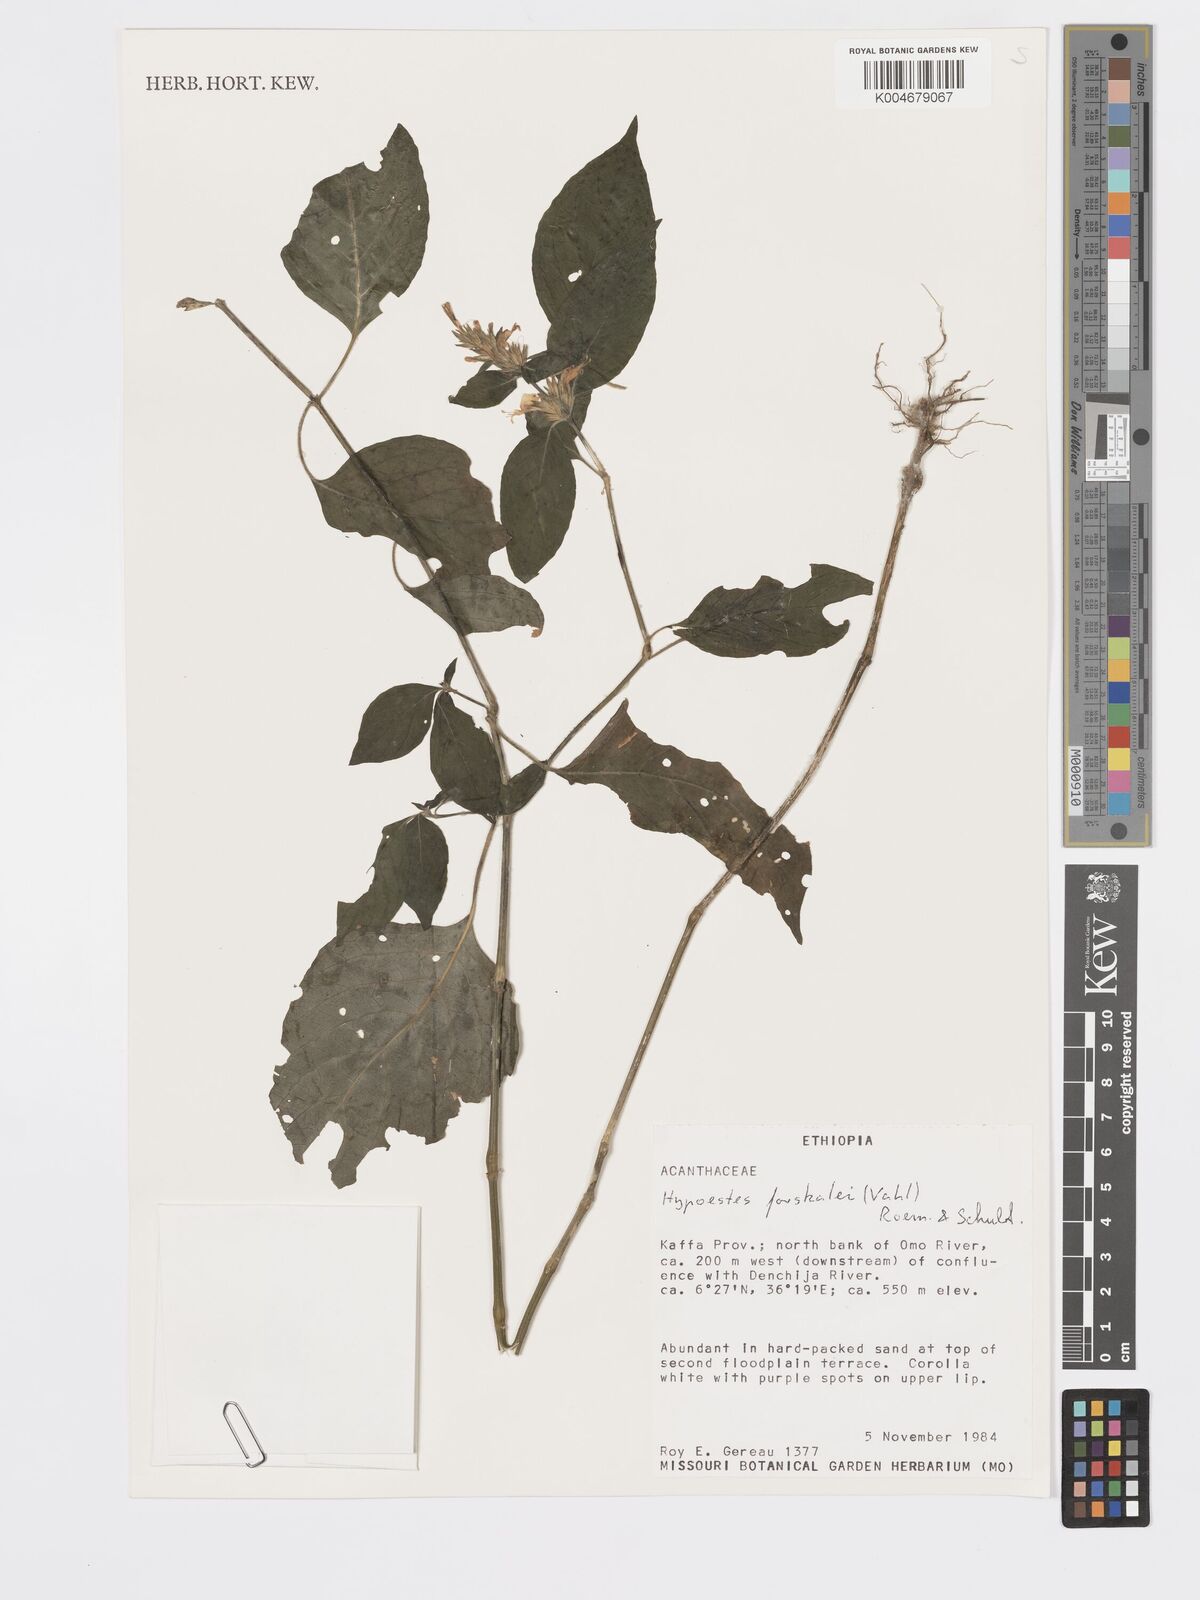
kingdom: Plantae
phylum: Tracheophyta
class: Magnoliopsida
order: Lamiales
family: Acanthaceae
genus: Hypoestes
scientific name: Hypoestes forskaolii
